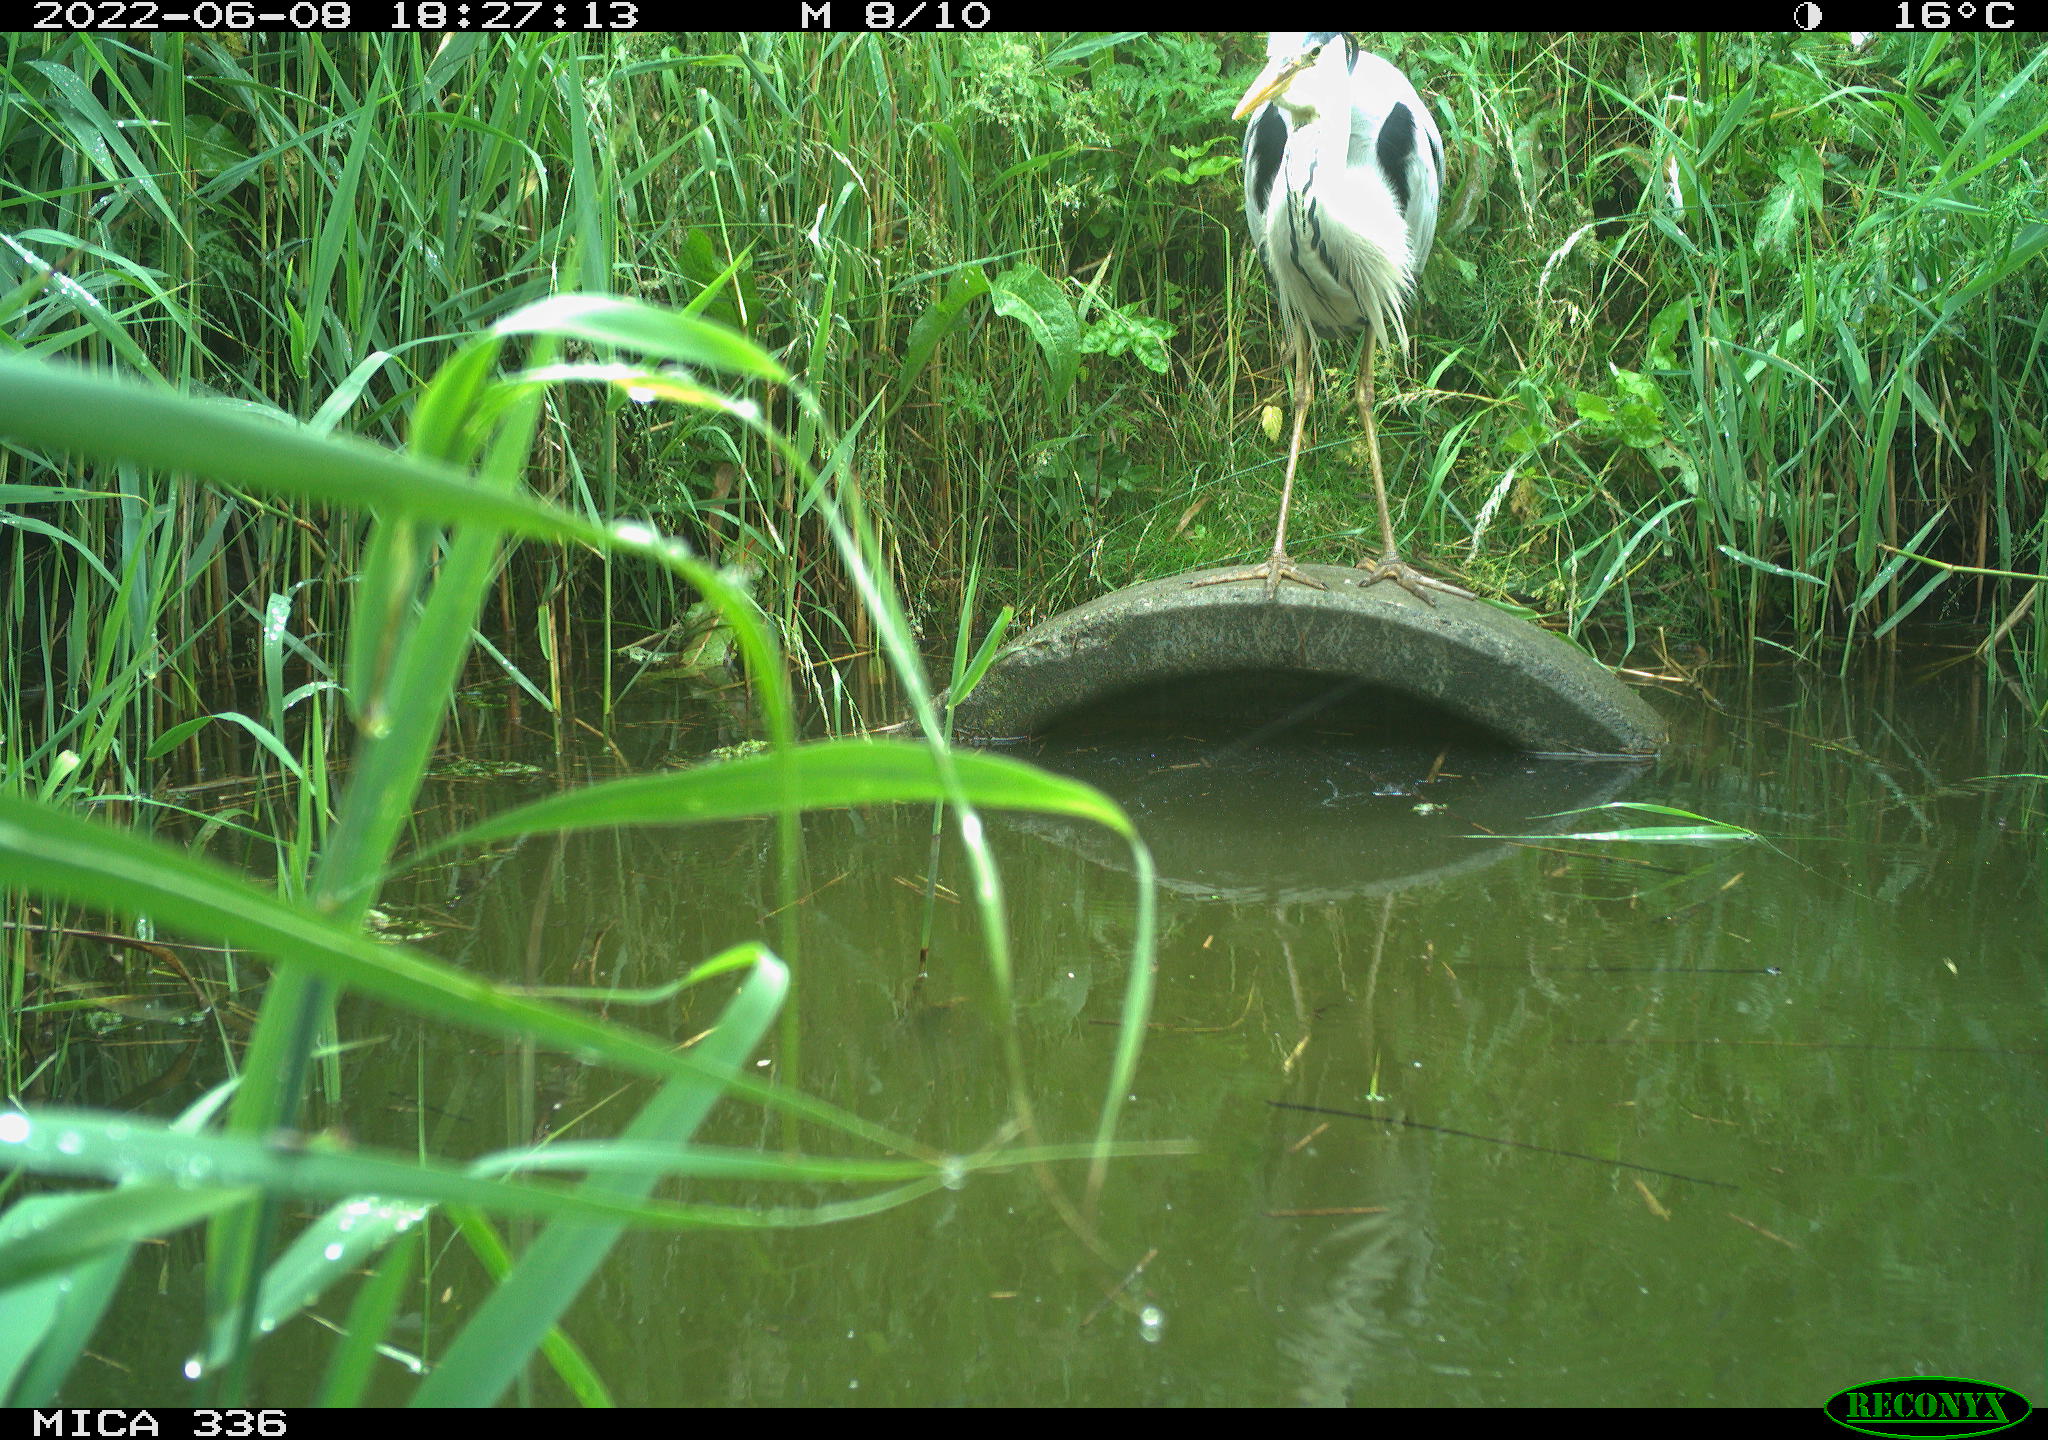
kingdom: Animalia
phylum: Chordata
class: Aves
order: Pelecaniformes
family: Ardeidae
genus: Ardea
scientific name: Ardea
